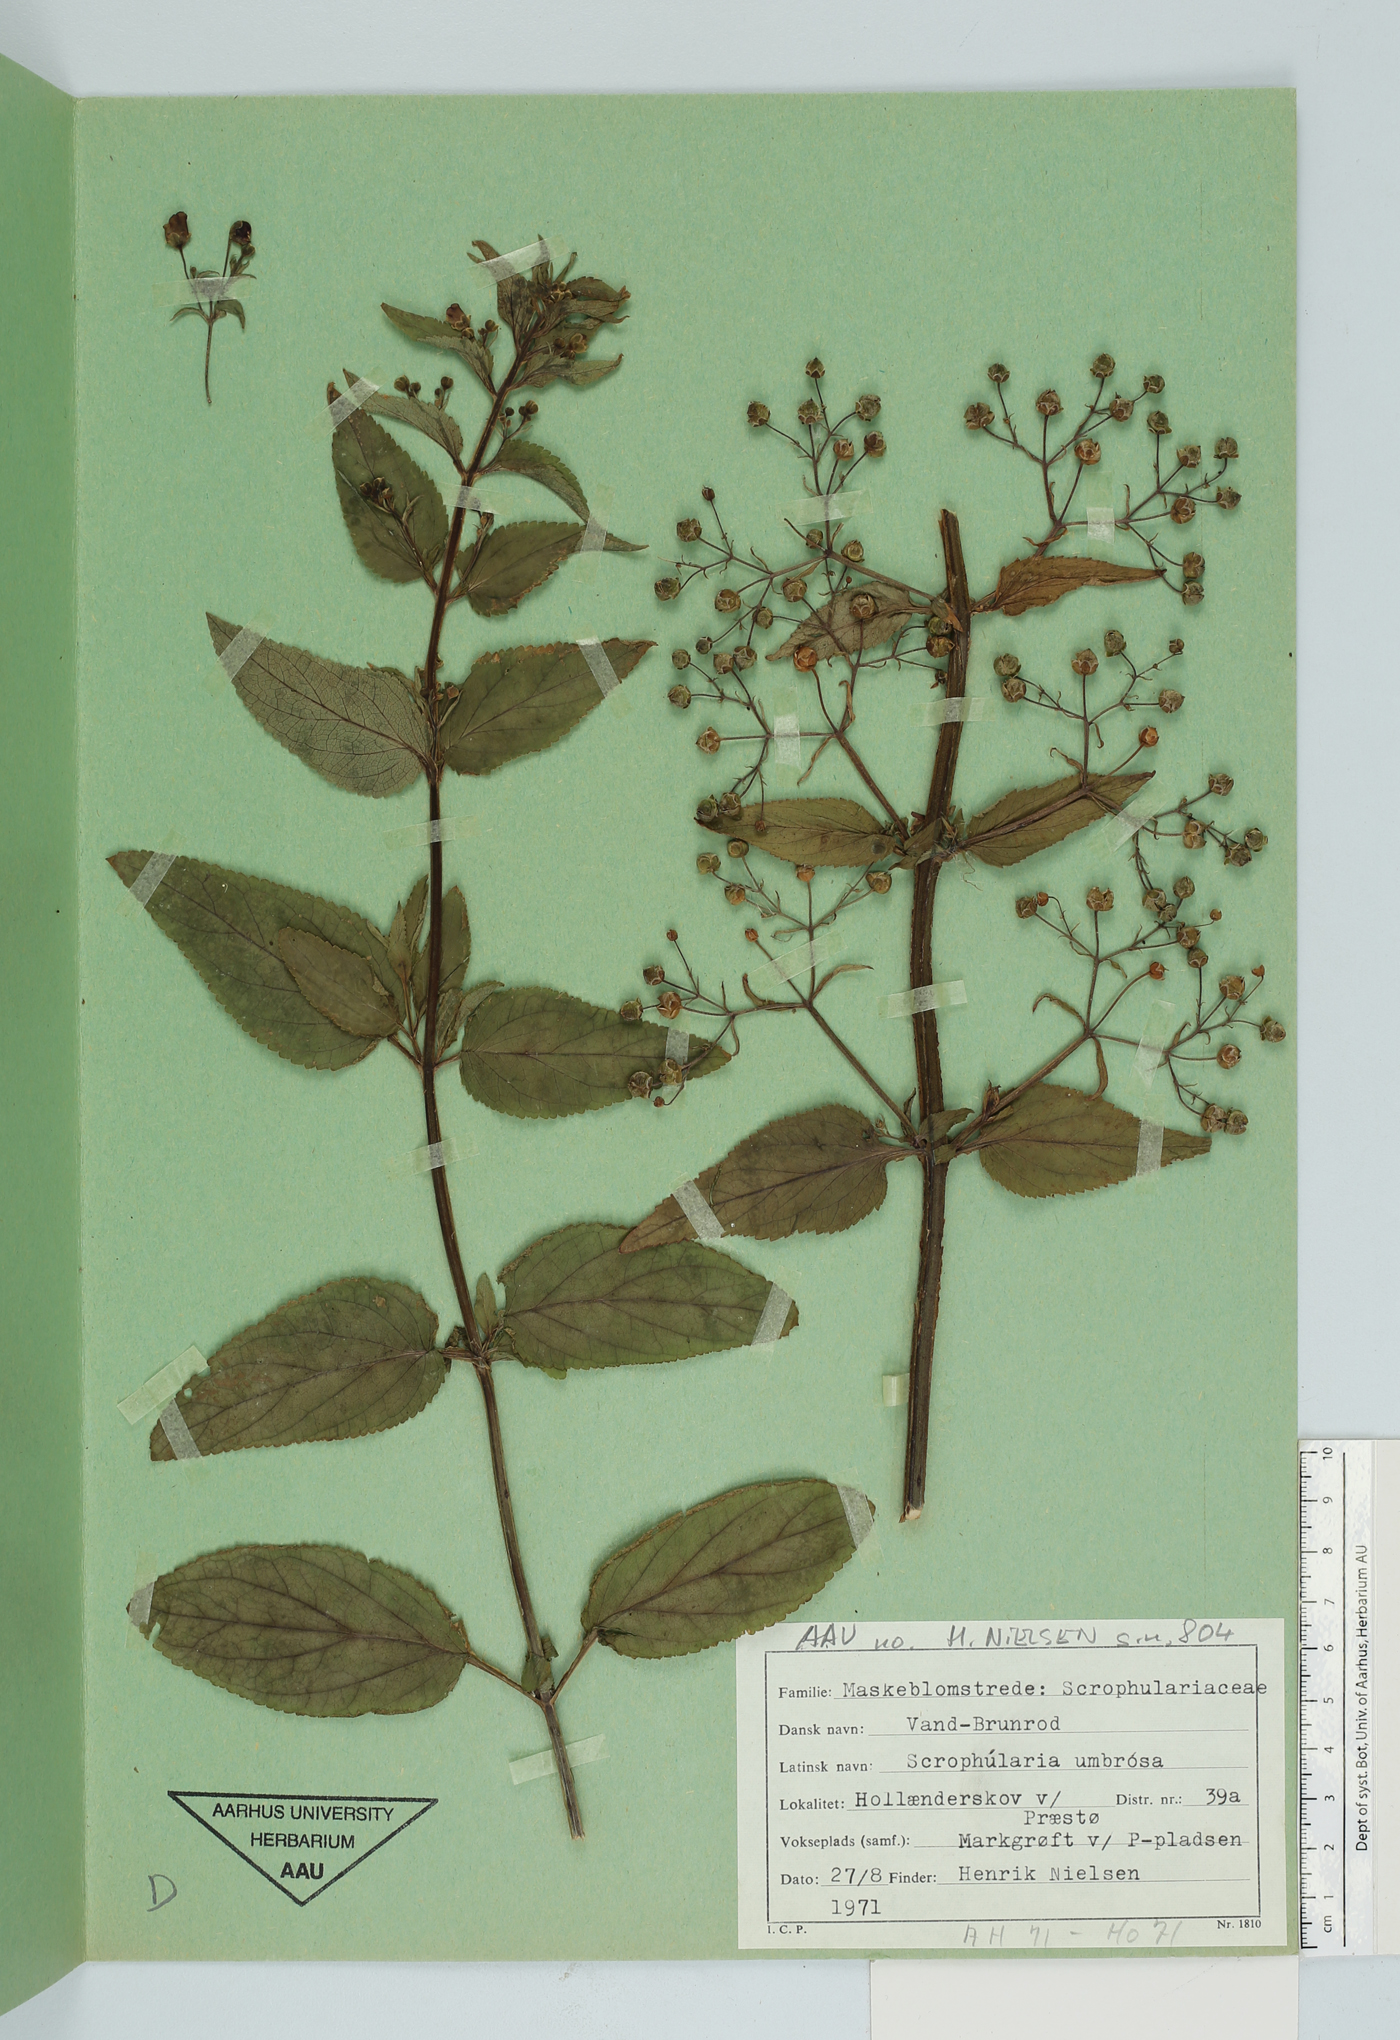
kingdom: Plantae
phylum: Tracheophyta
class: Magnoliopsida
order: Lamiales
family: Scrophulariaceae
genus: Scrophularia
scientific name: Scrophularia umbrosa
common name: Green figwort
